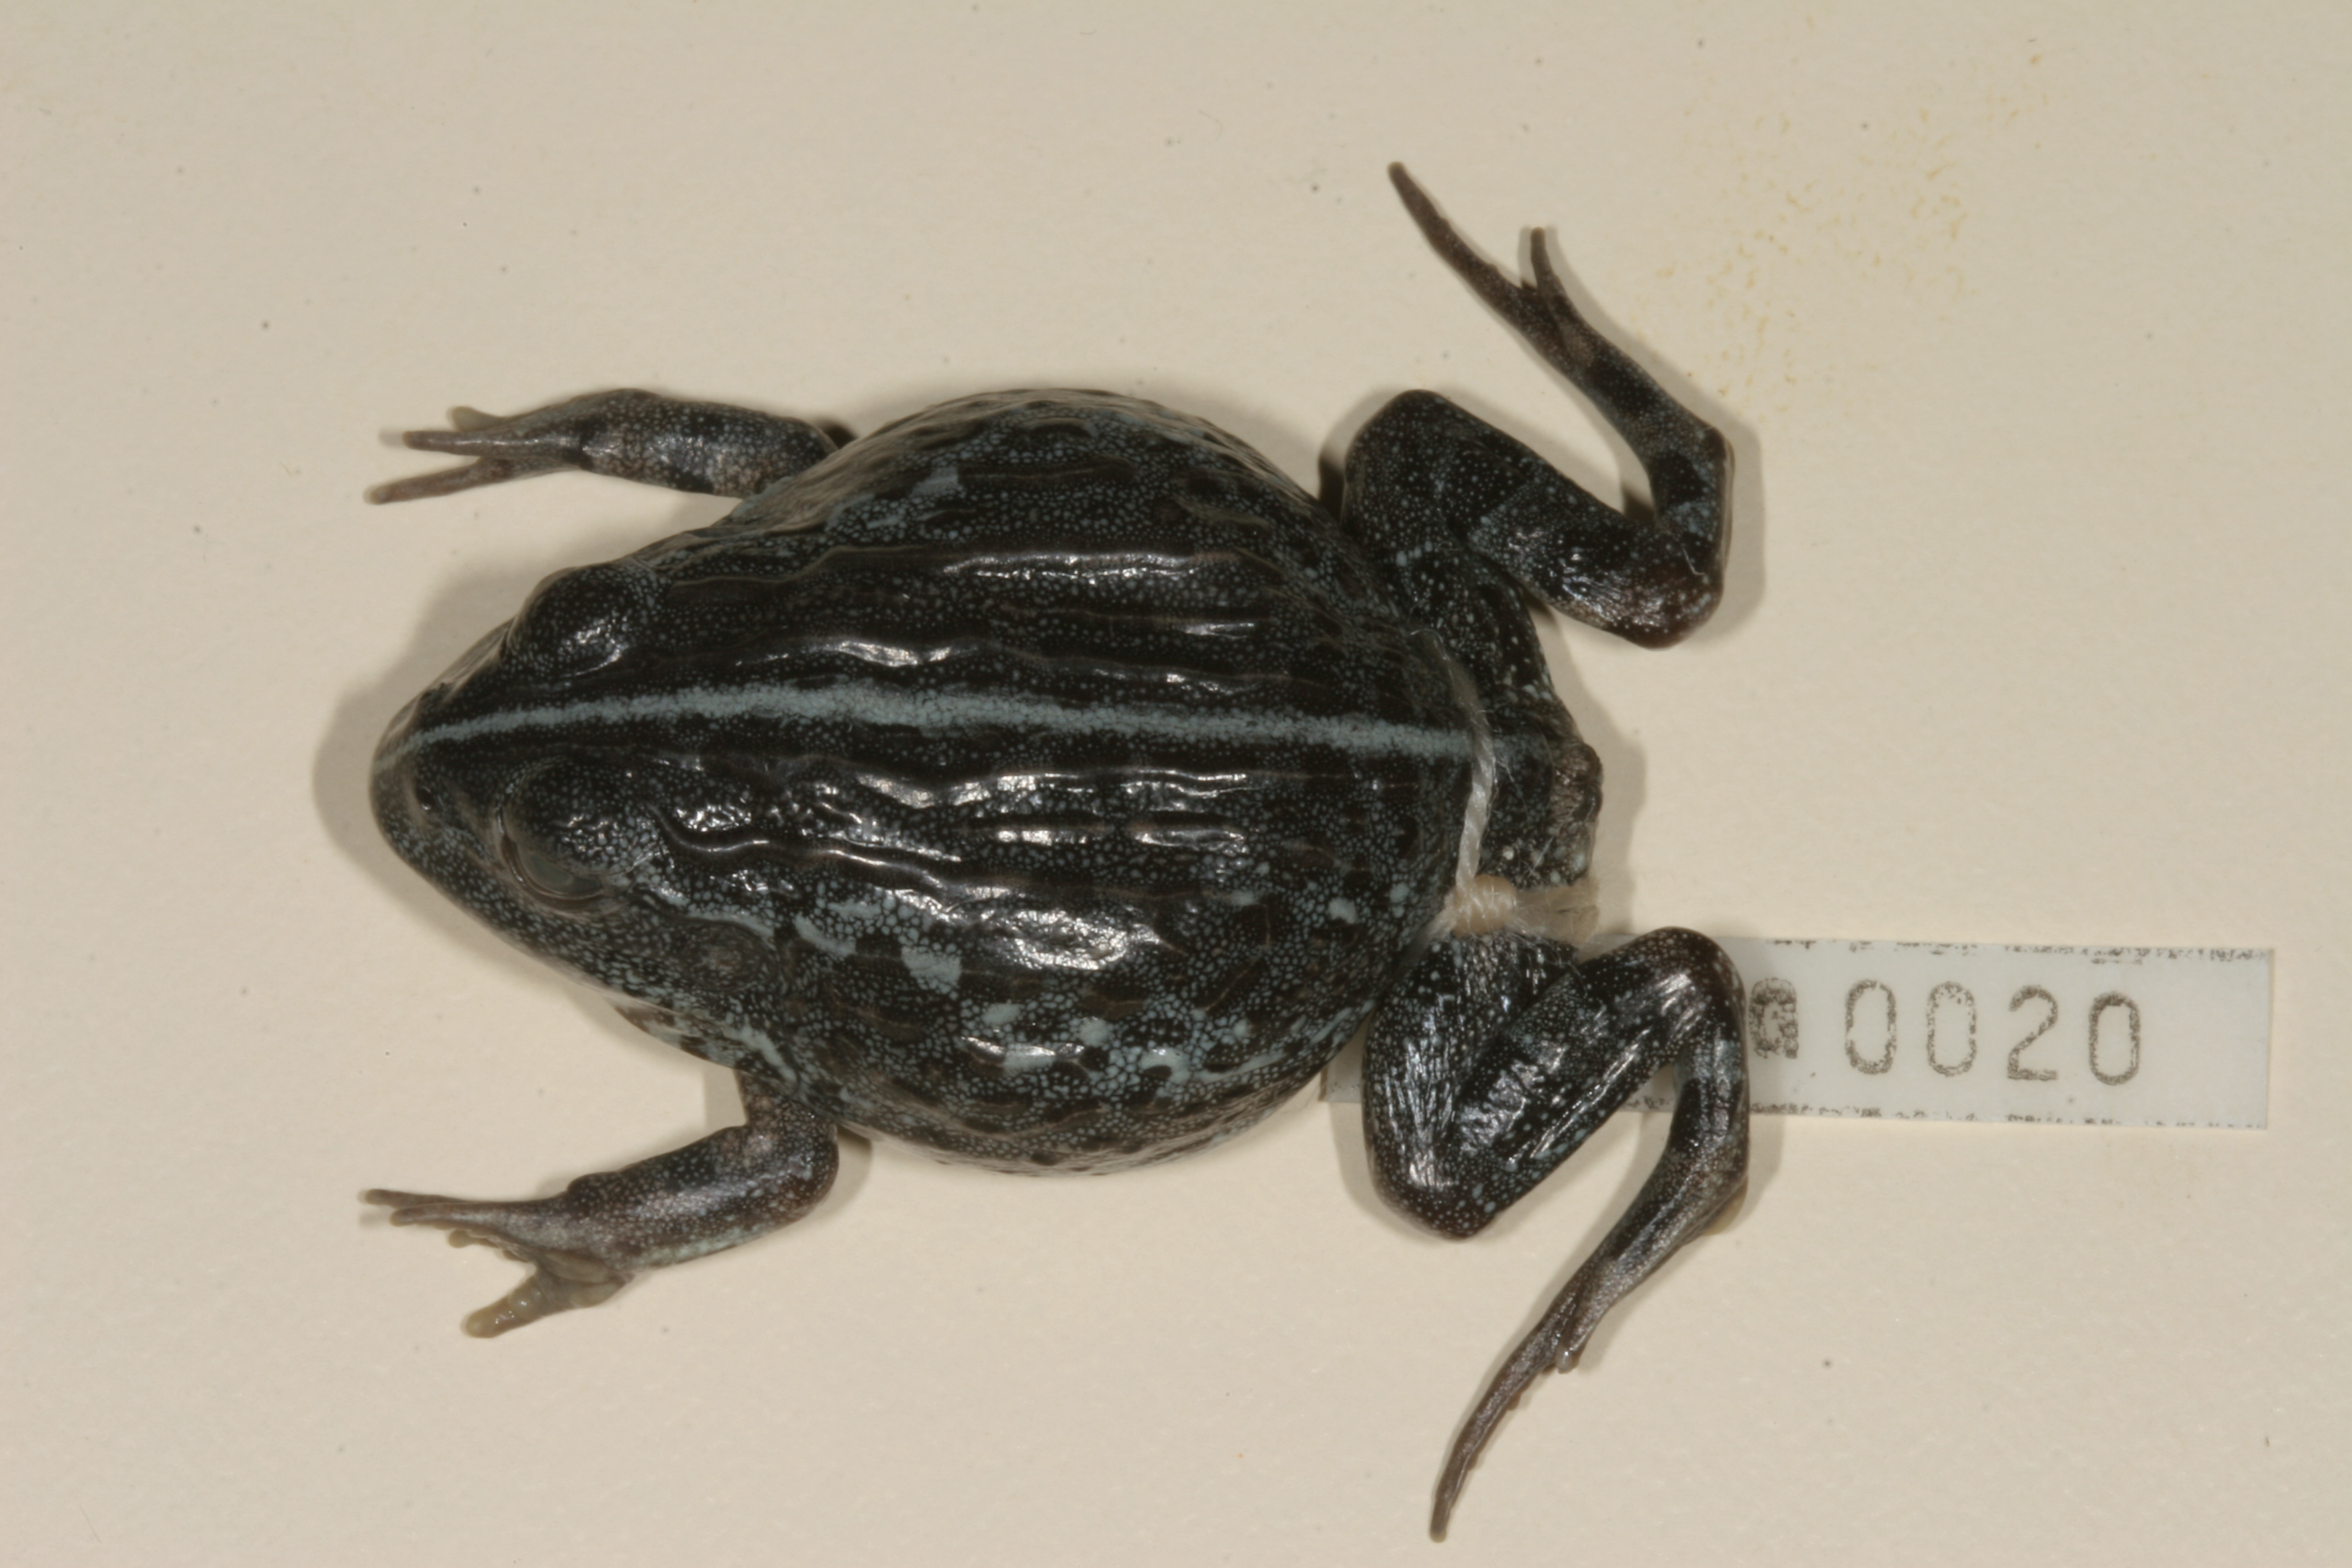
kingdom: Animalia
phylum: Chordata
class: Amphibia
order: Anura
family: Pyxicephalidae
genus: Pyxicephalus
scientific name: Pyxicephalus adspersus
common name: African bullfrog
